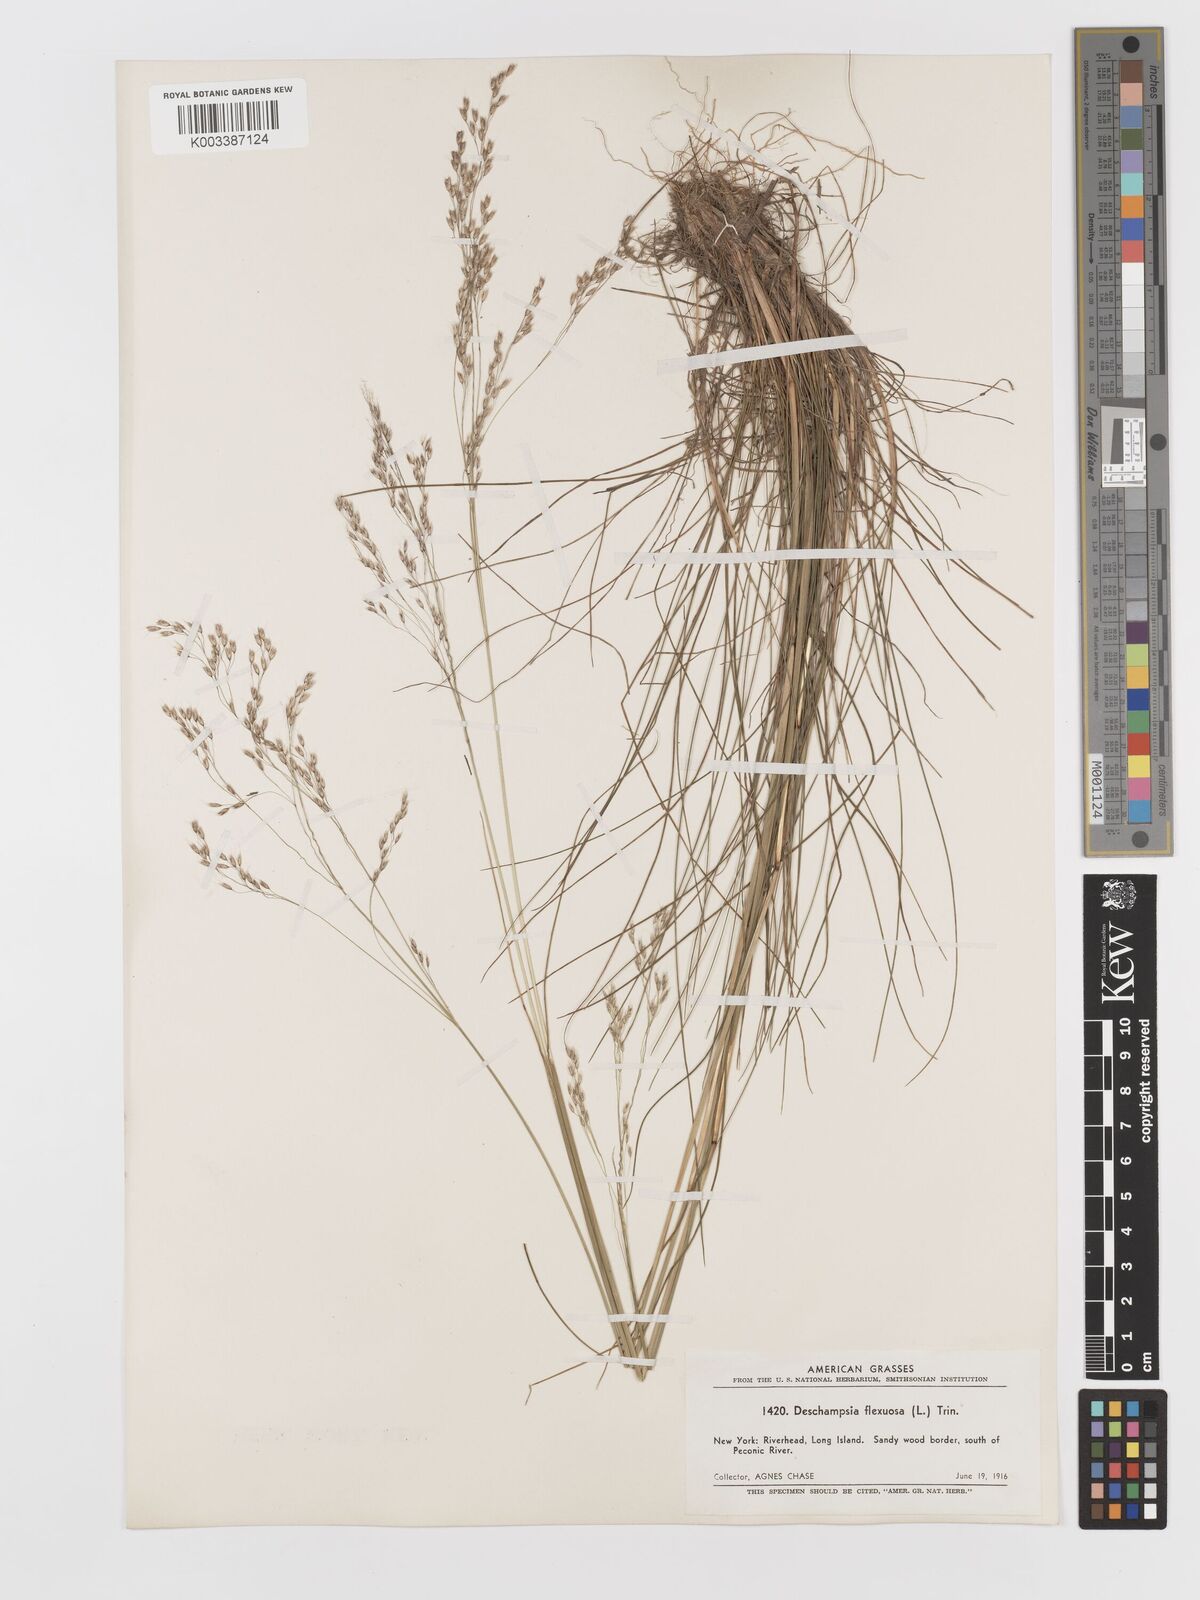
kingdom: Plantae
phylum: Tracheophyta
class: Liliopsida
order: Poales
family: Poaceae
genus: Avenella
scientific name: Avenella flexuosa
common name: Wavy hairgrass
